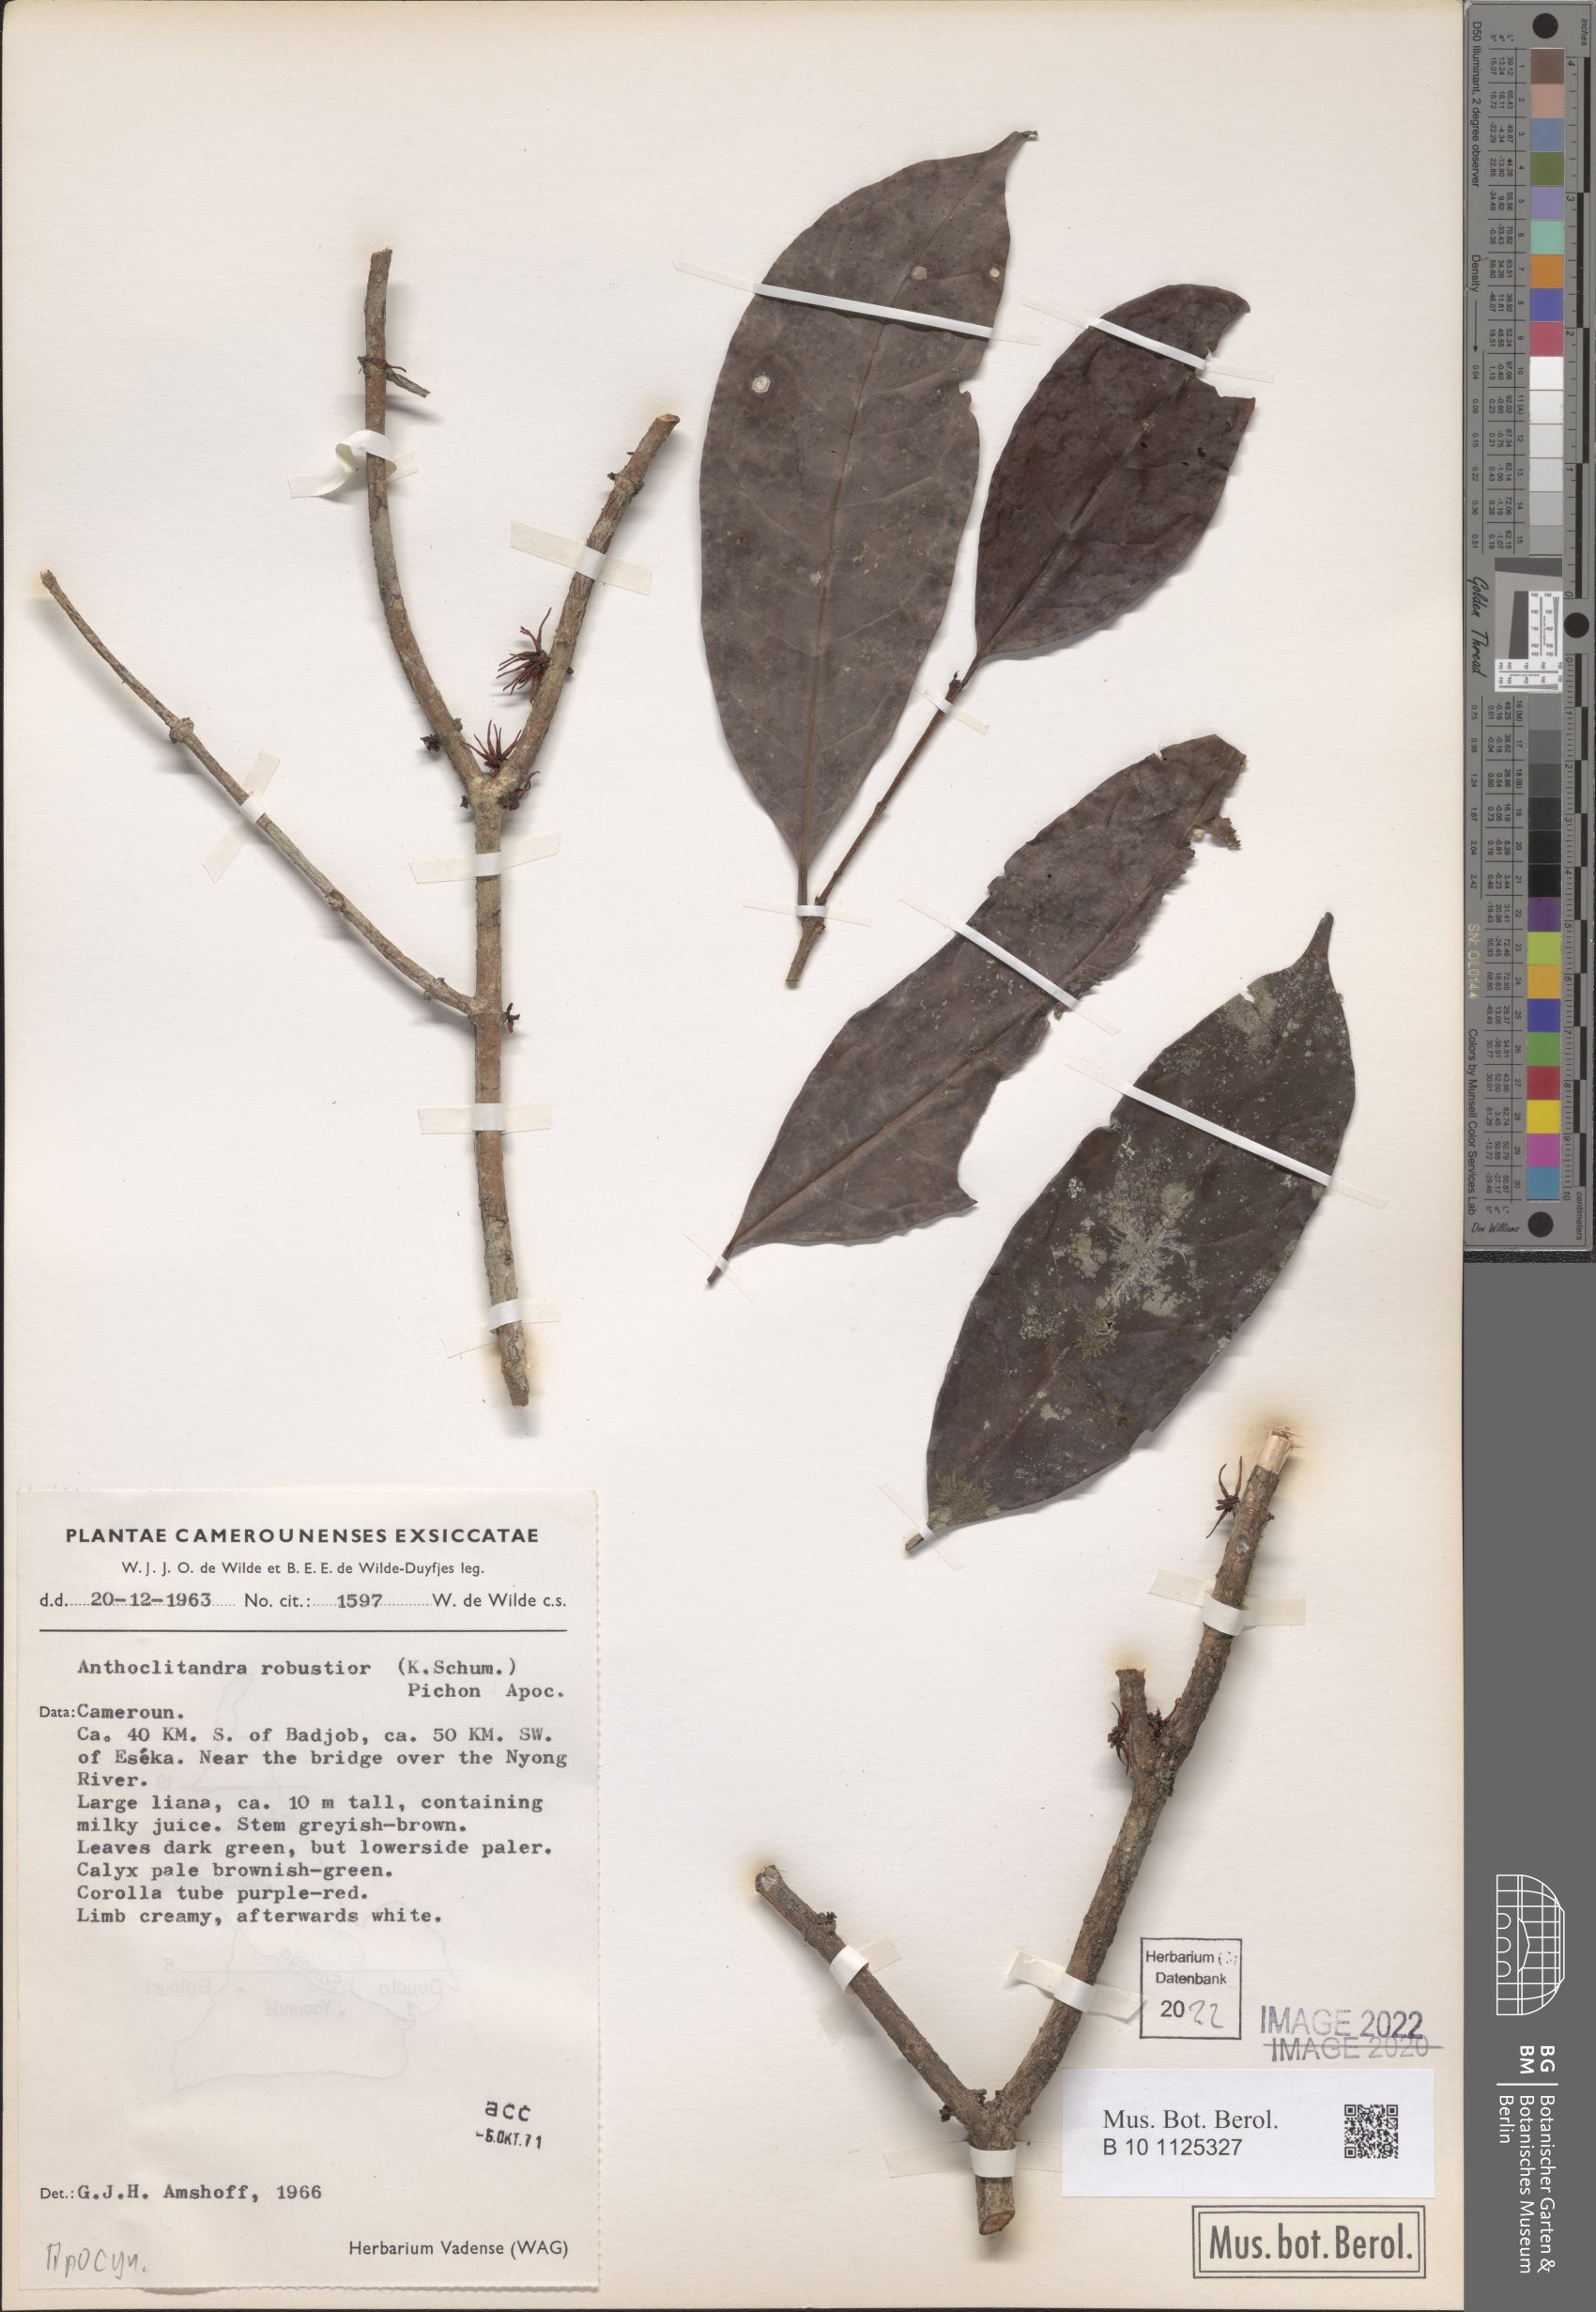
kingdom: Plantae
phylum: Tracheophyta
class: Magnoliopsida
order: Gentianales
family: Apocynaceae
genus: Landolphia
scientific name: Landolphia robustior
